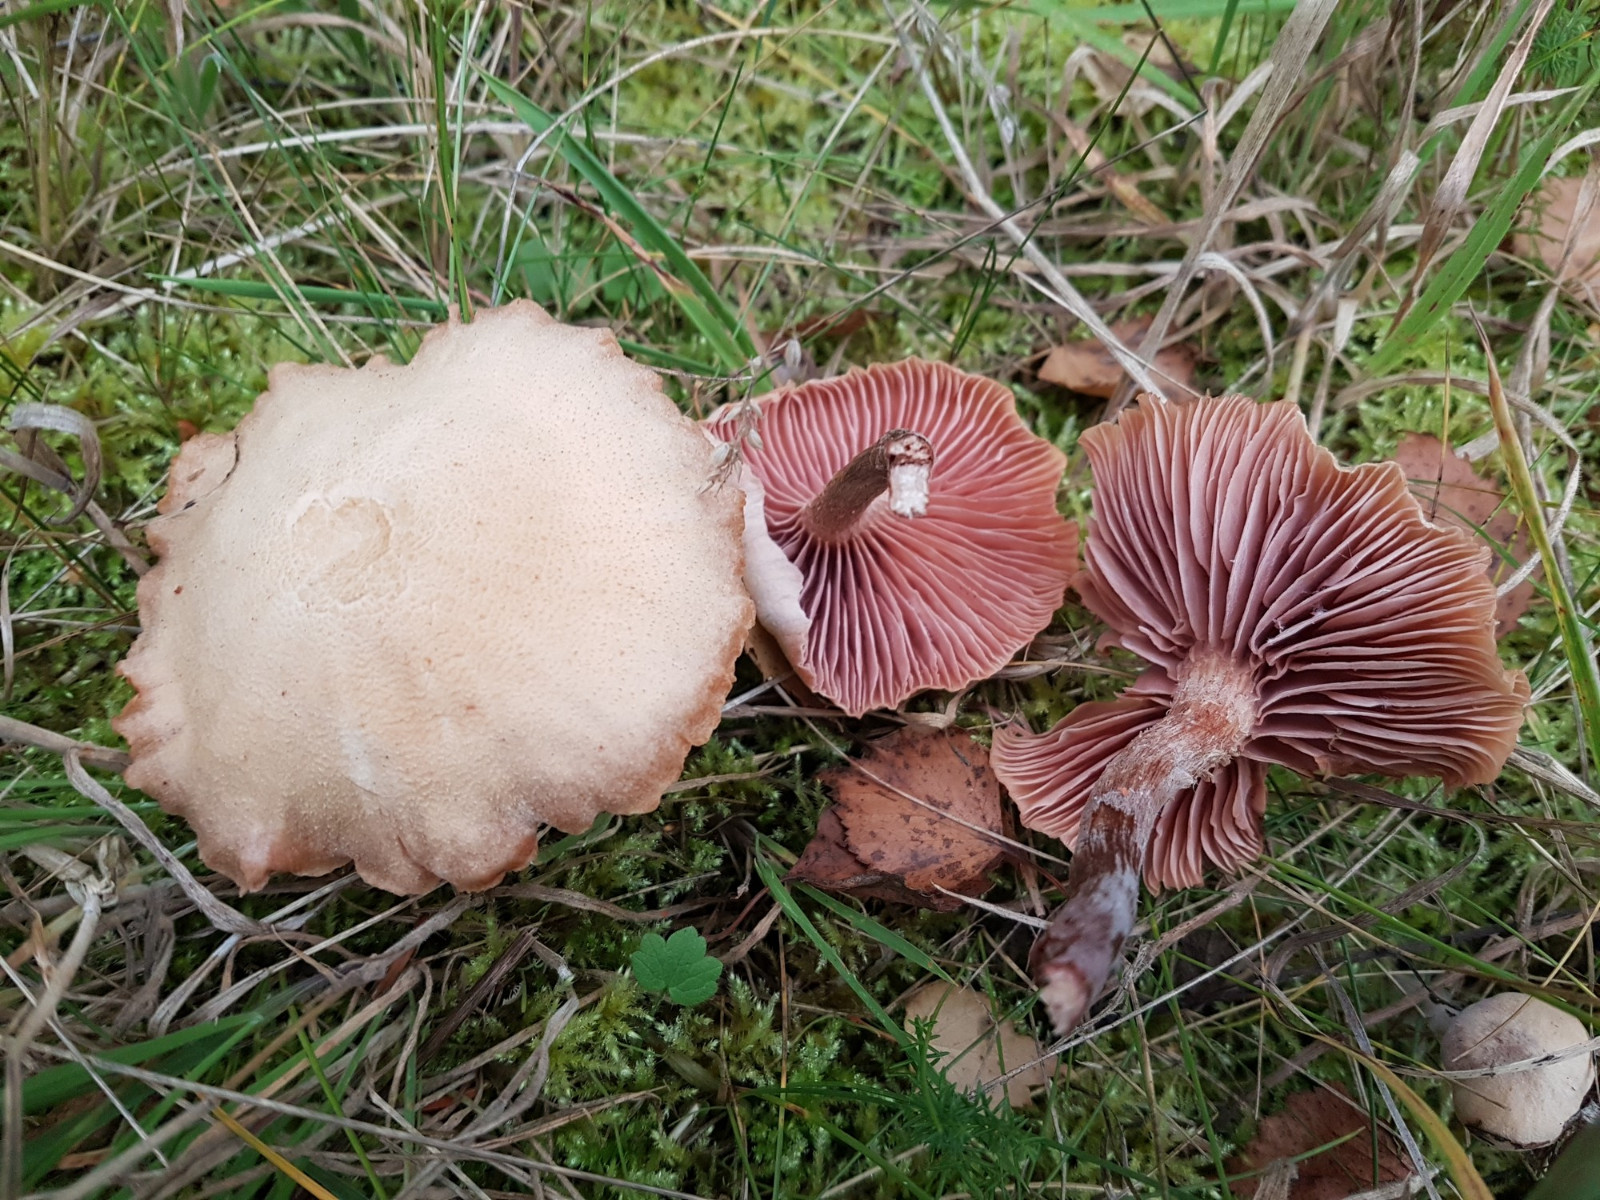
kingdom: Fungi
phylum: Basidiomycota
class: Agaricomycetes
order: Agaricales
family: Hydnangiaceae
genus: Laccaria
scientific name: Laccaria proxima
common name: stor ametysthat
